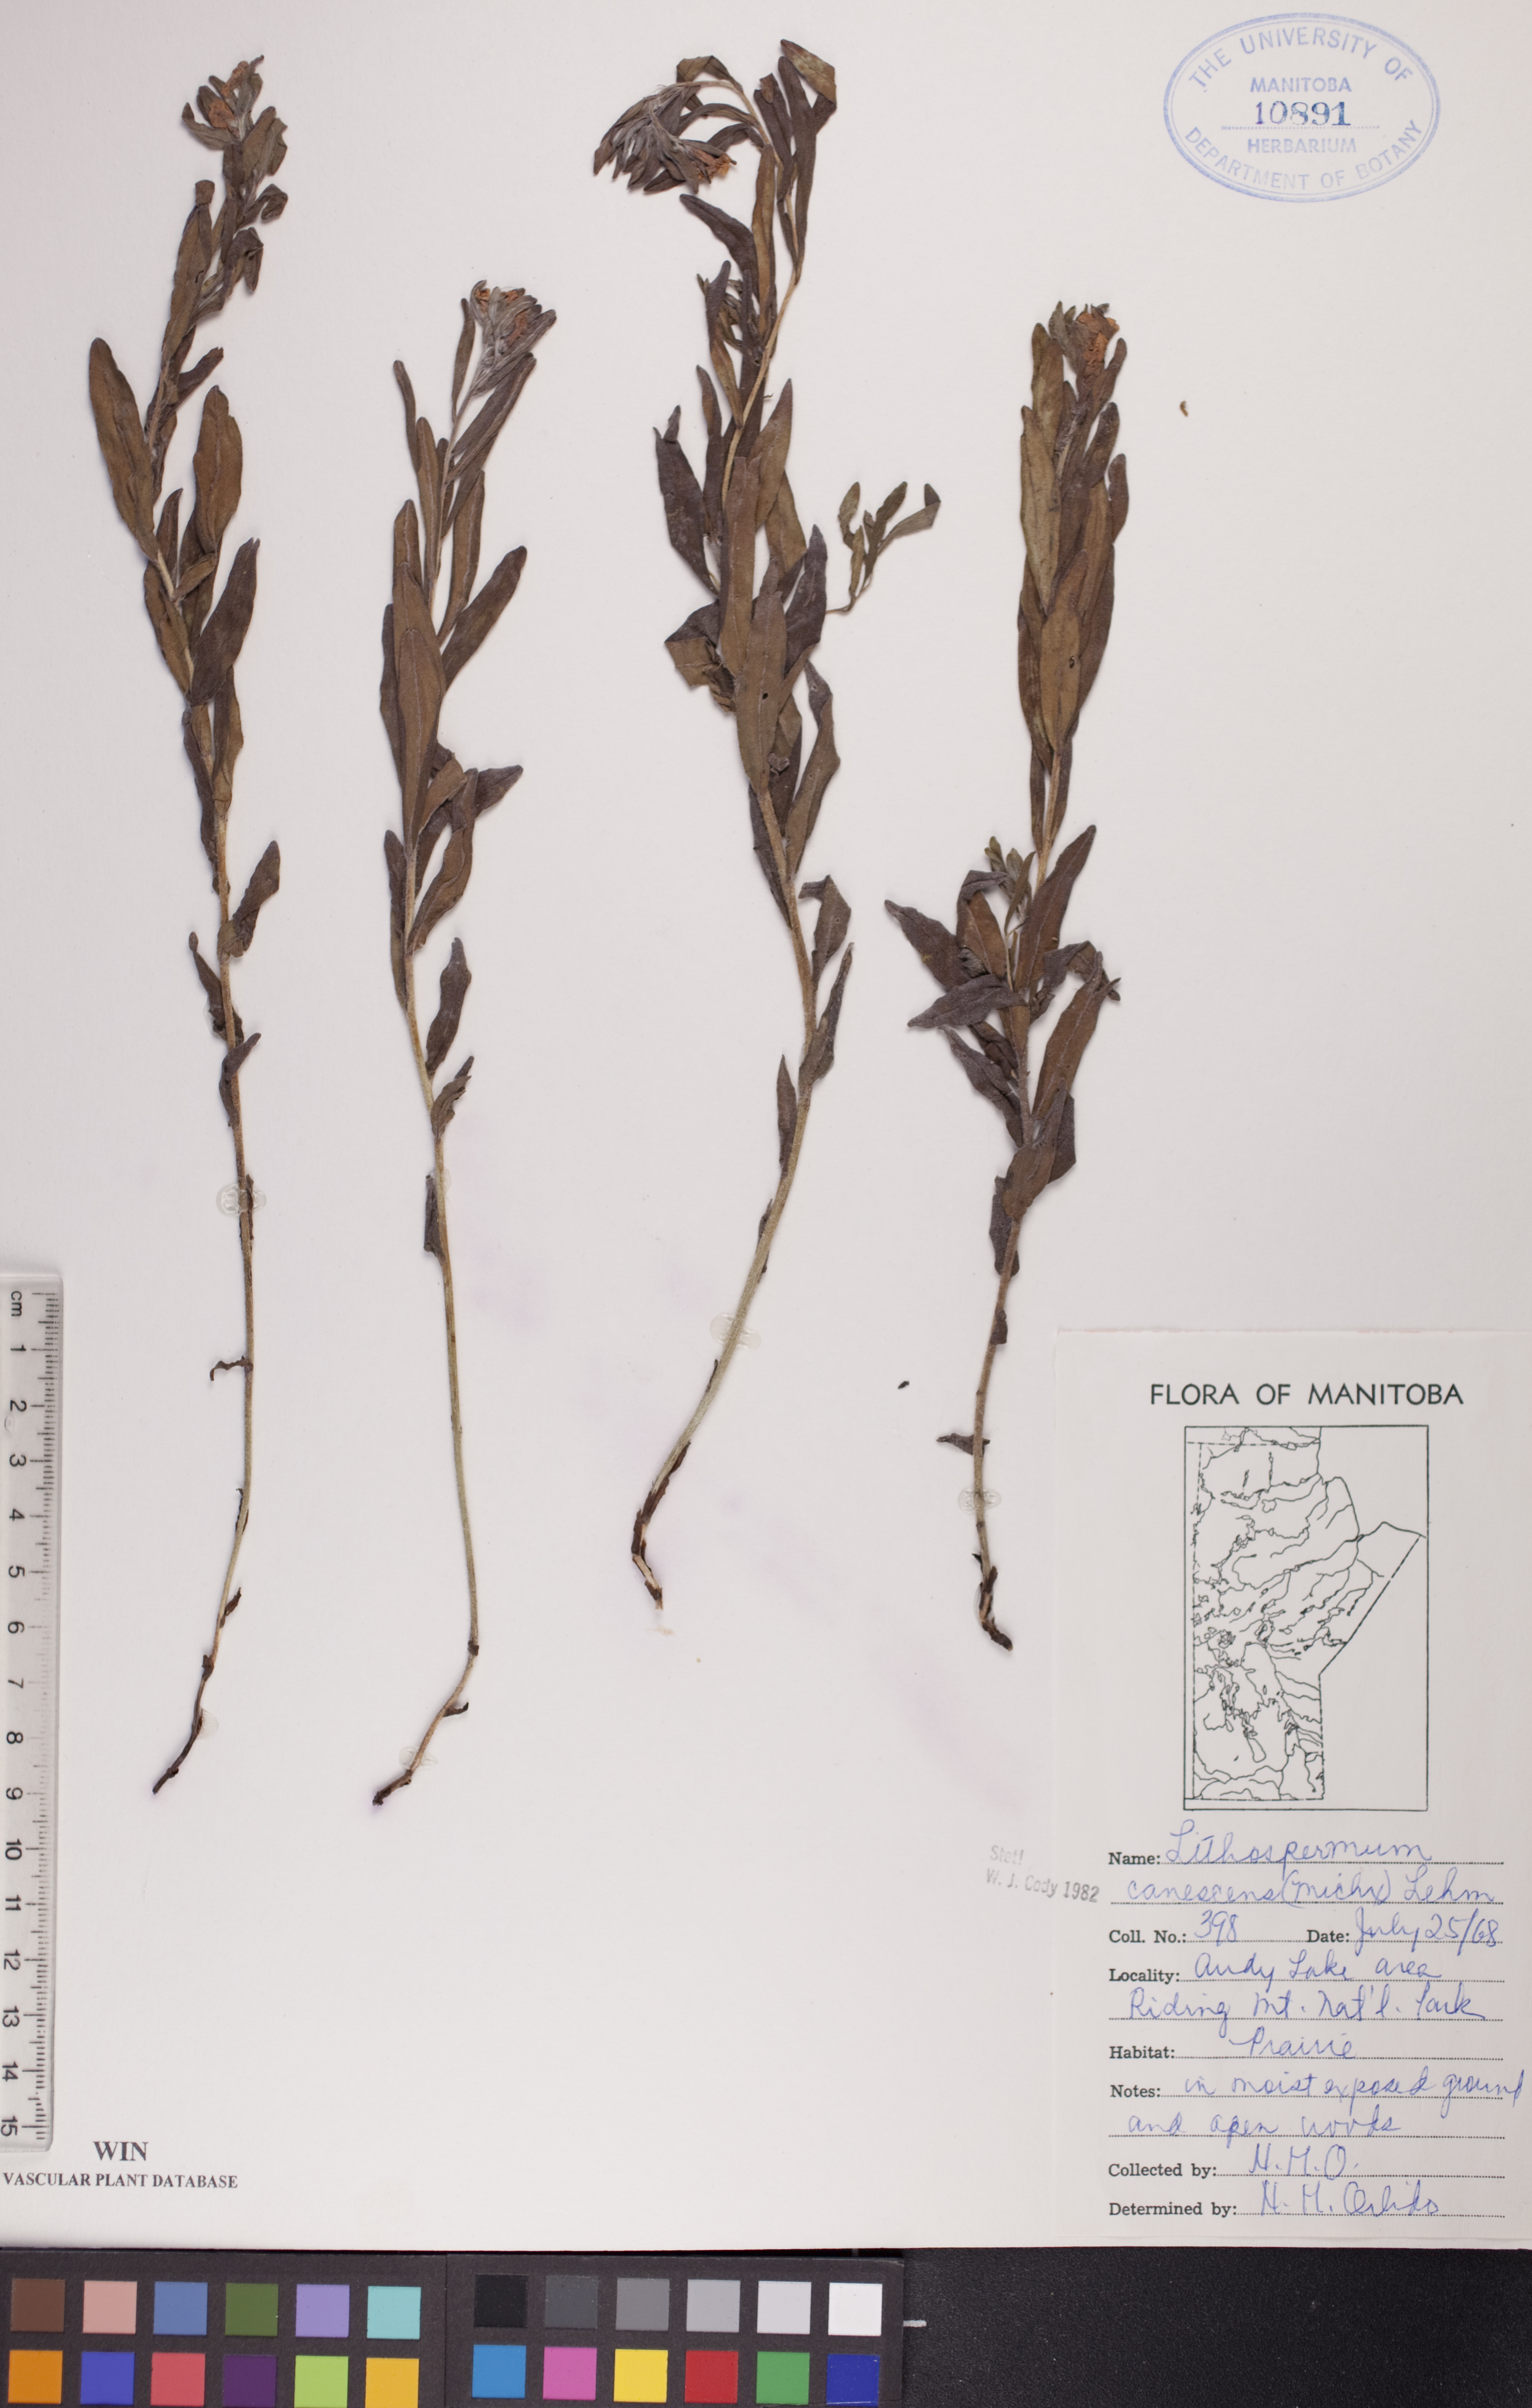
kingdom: Plantae
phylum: Tracheophyta
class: Magnoliopsida
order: Boraginales
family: Boraginaceae
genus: Lithospermum
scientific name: Lithospermum canescens
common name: Hoary puccoon
